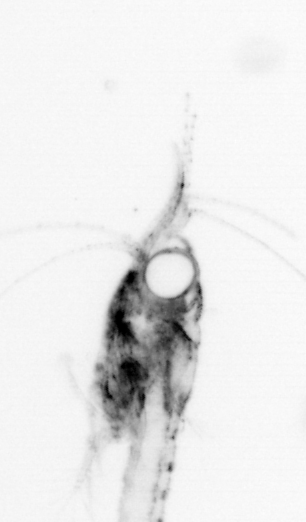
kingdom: Animalia
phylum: Arthropoda
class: Malacostraca
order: Decapoda
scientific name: Decapoda
